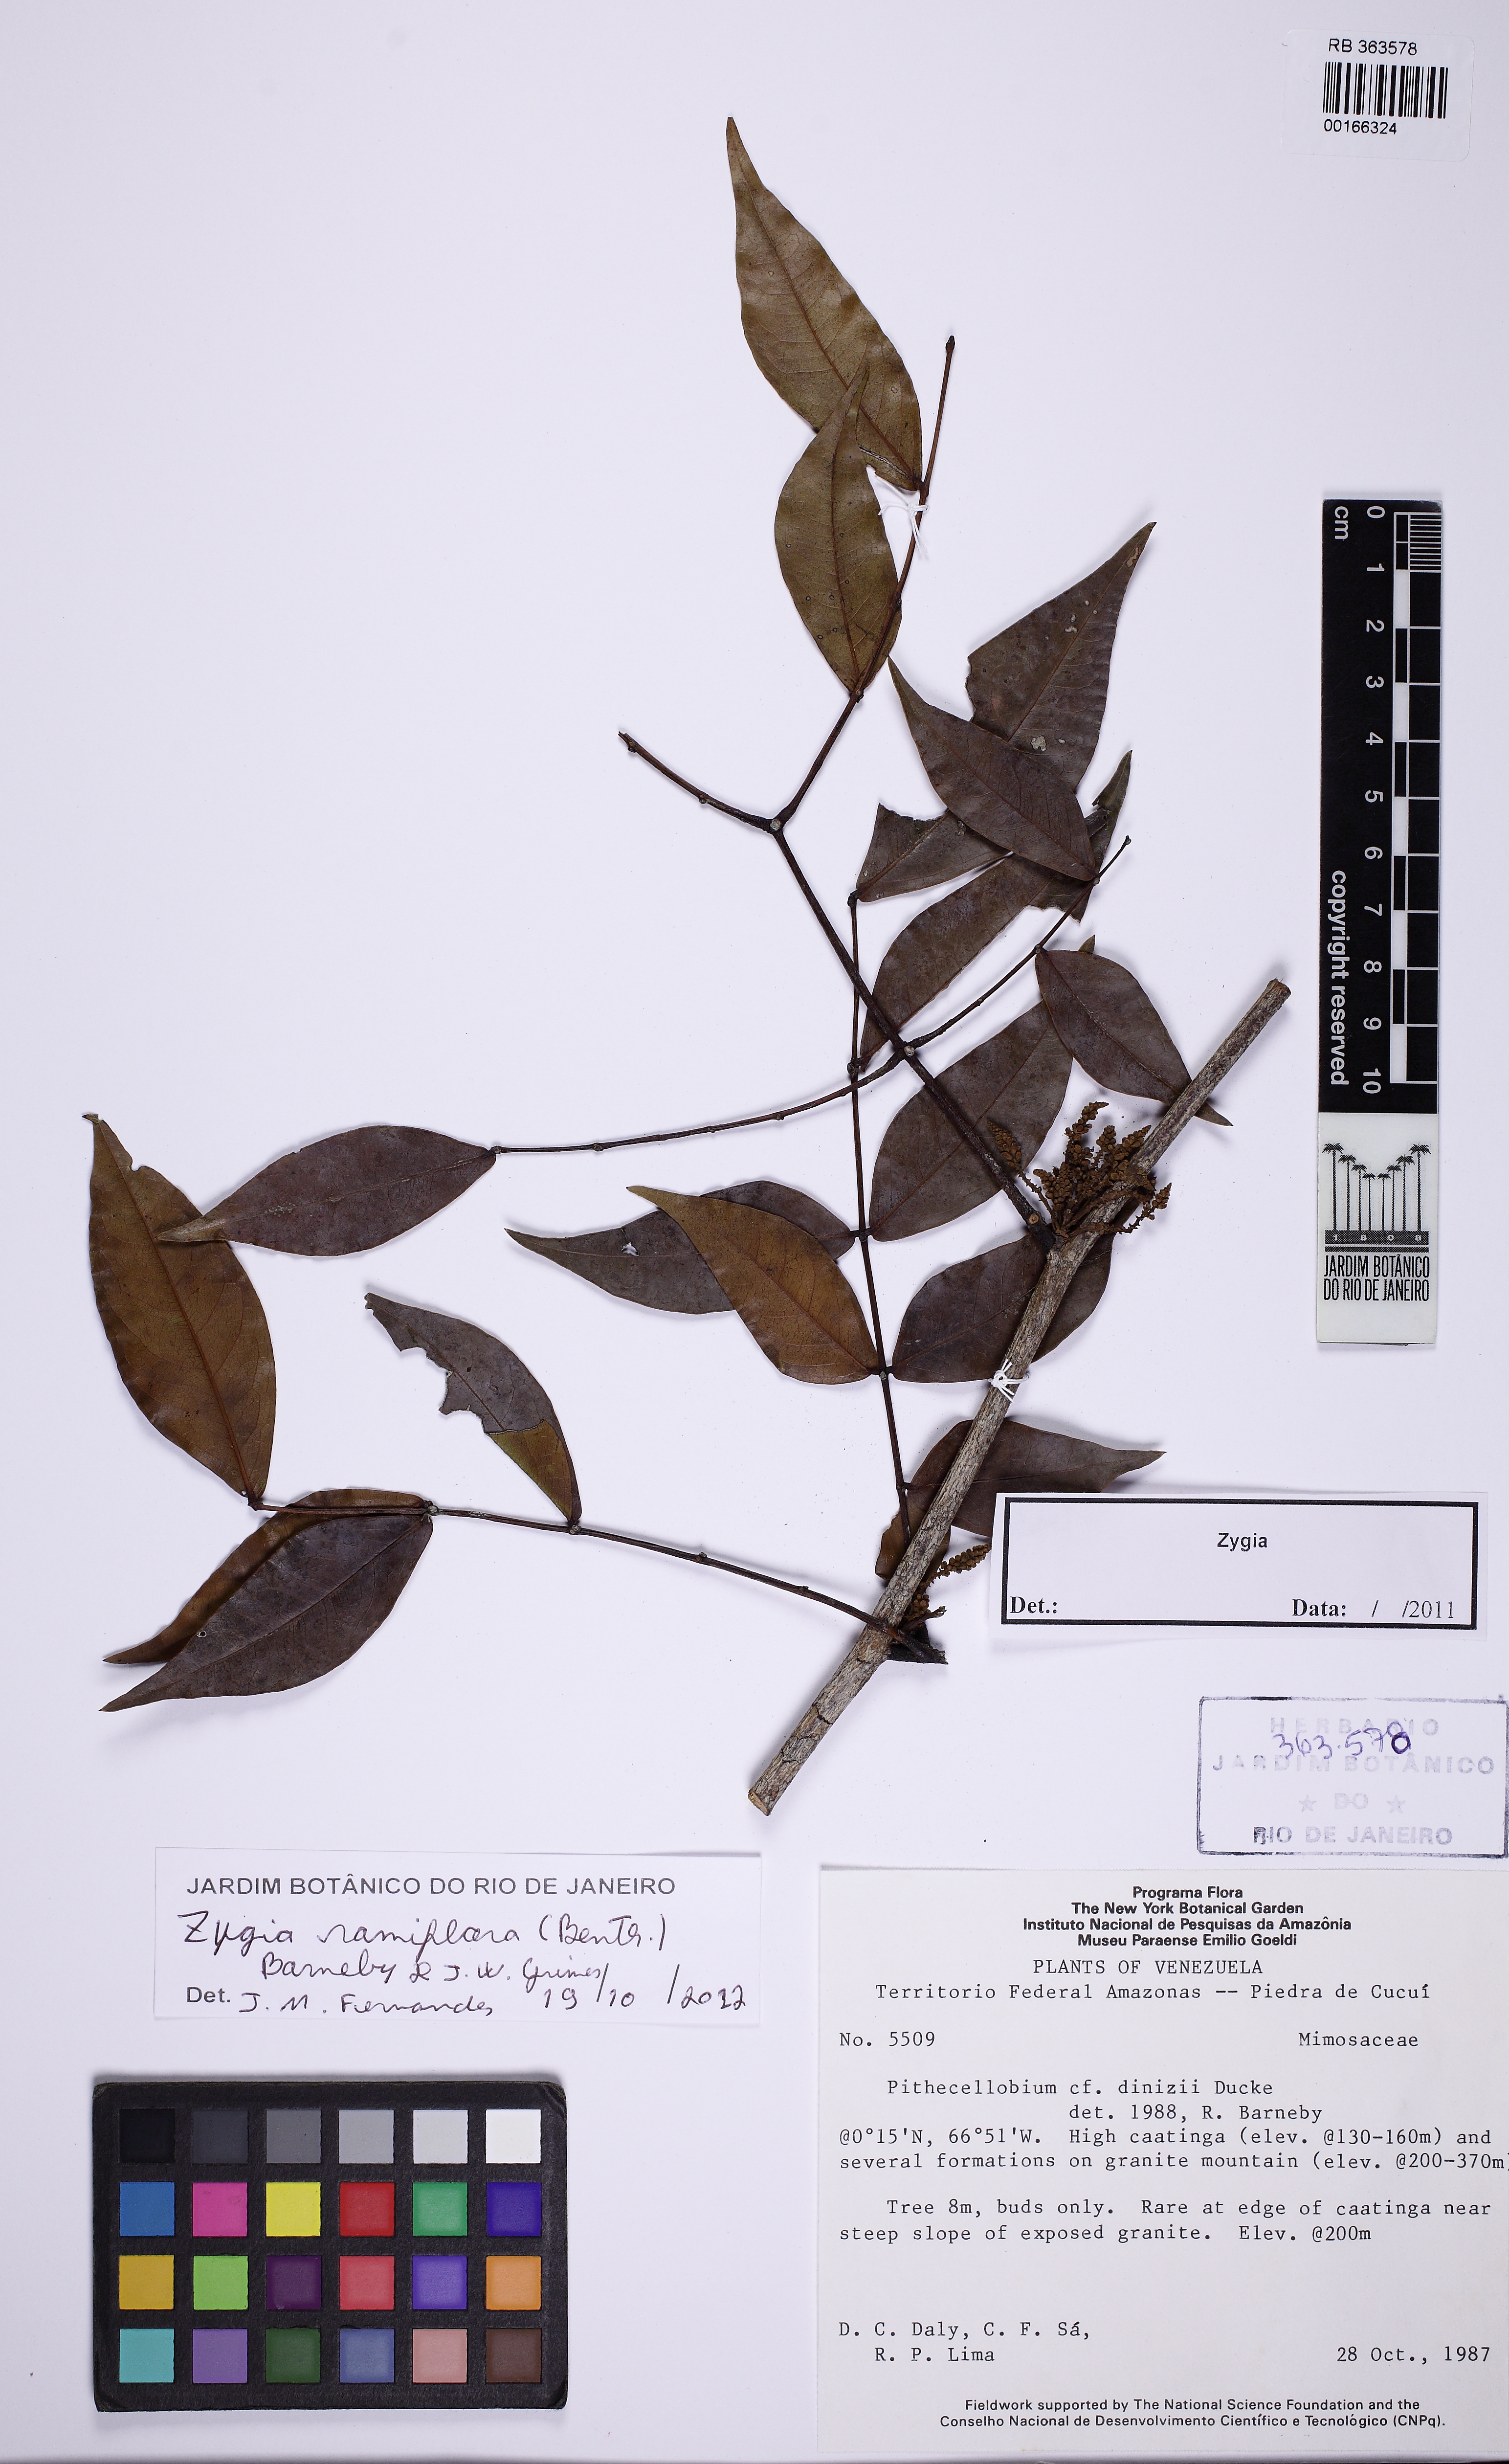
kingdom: Plantae
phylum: Tracheophyta
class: Magnoliopsida
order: Fabales
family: Fabaceae
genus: Zygia
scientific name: Zygia dinizii
